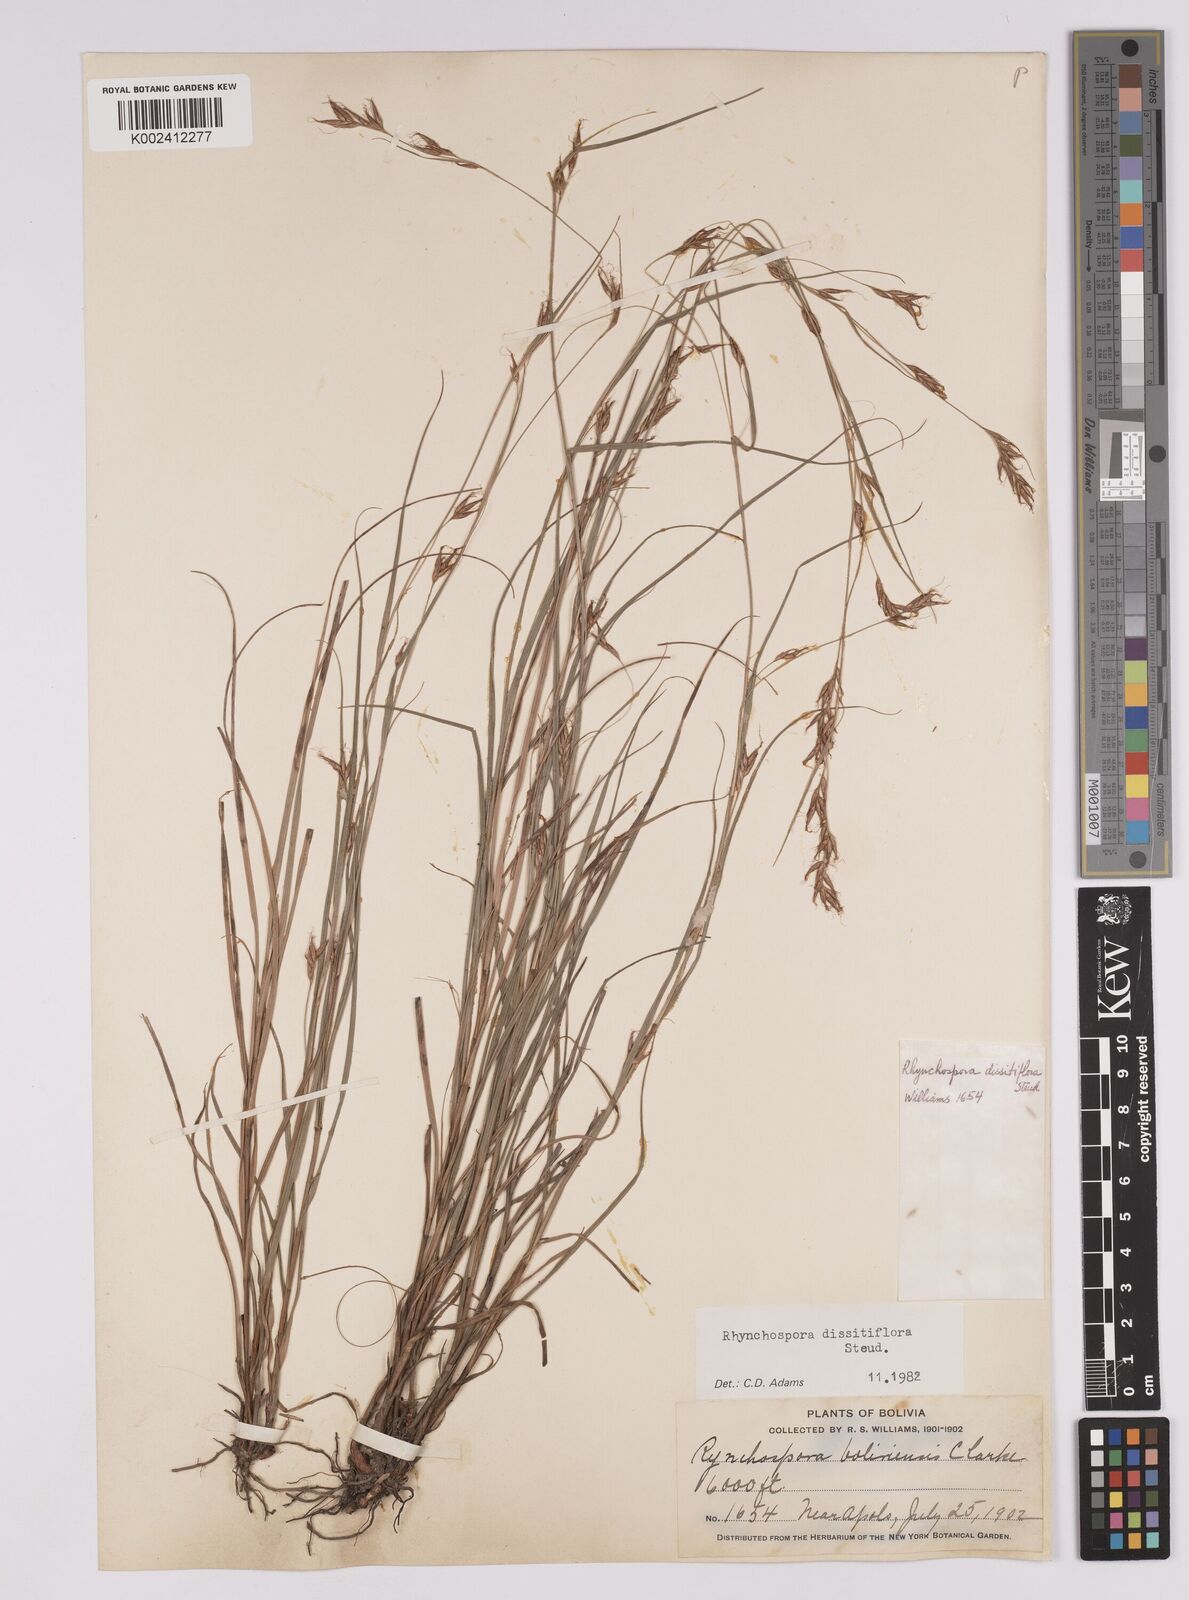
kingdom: Plantae
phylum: Tracheophyta
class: Liliopsida
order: Poales
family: Cyperaceae
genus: Rhynchospora
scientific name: Rhynchospora dissitiflora
